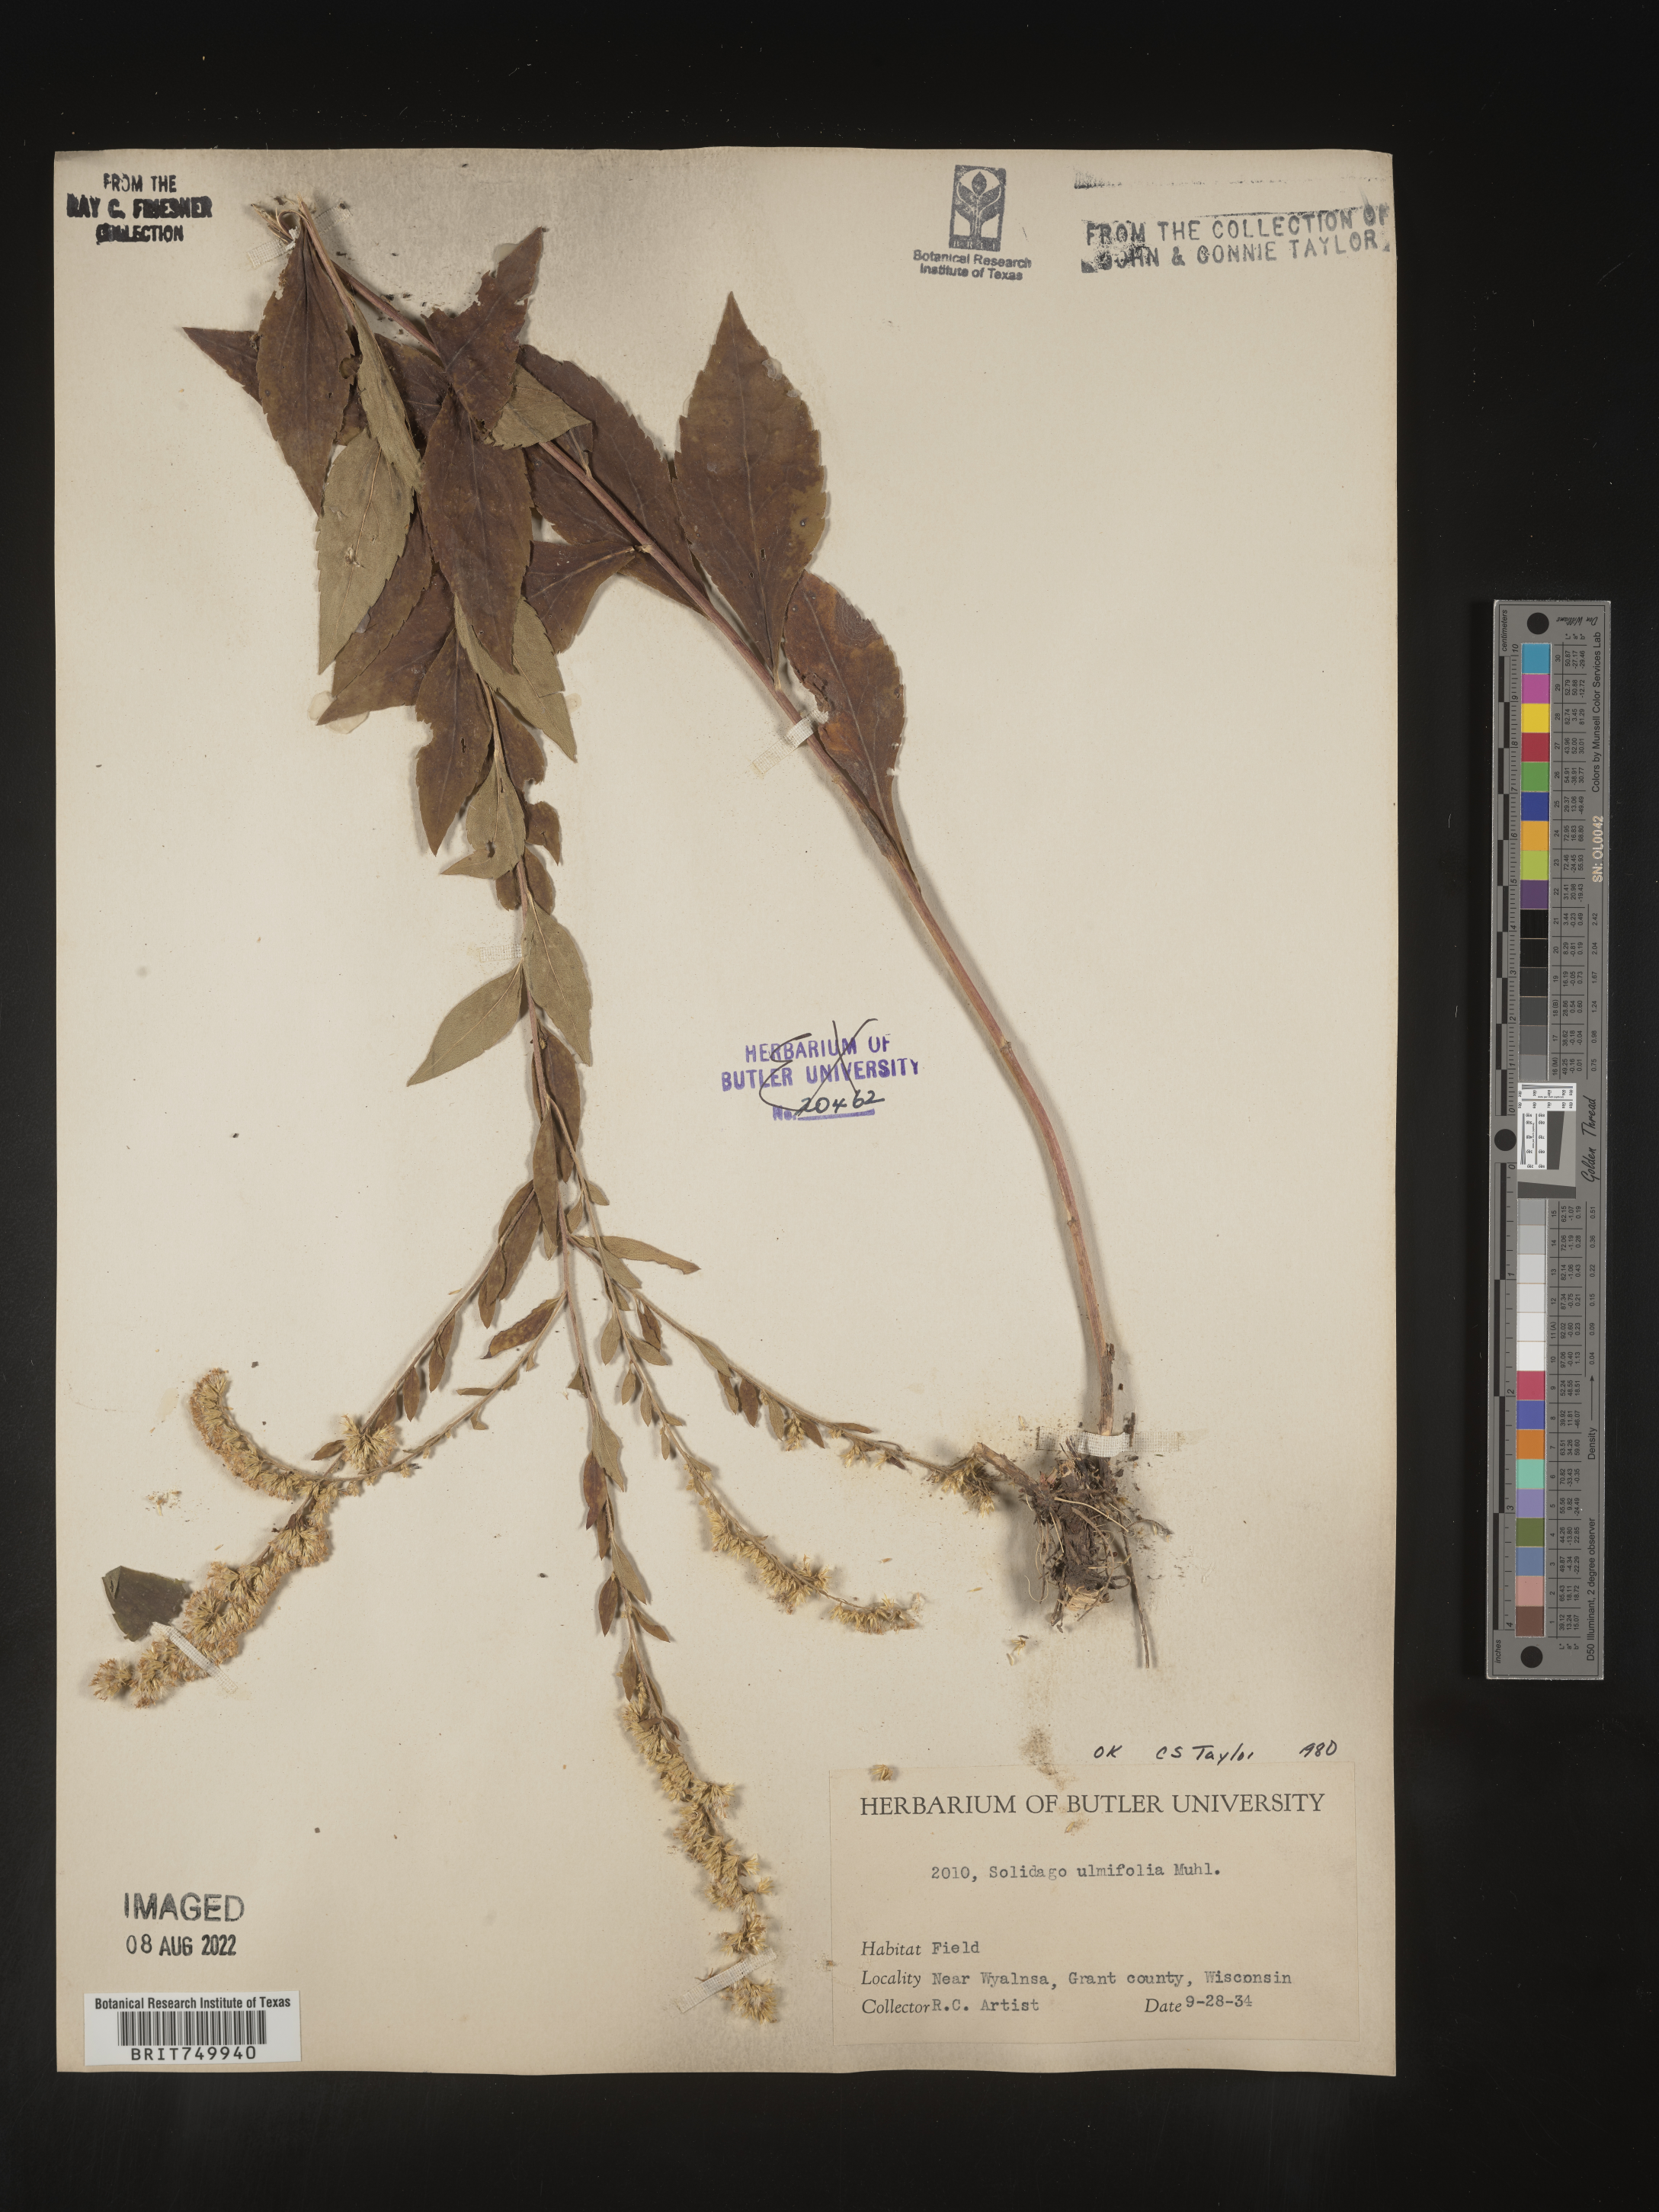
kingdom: Plantae
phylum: Tracheophyta
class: Magnoliopsida
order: Asterales
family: Asteraceae
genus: Solidago
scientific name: Solidago ulmifolia
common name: Elm-leaf goldenrod
